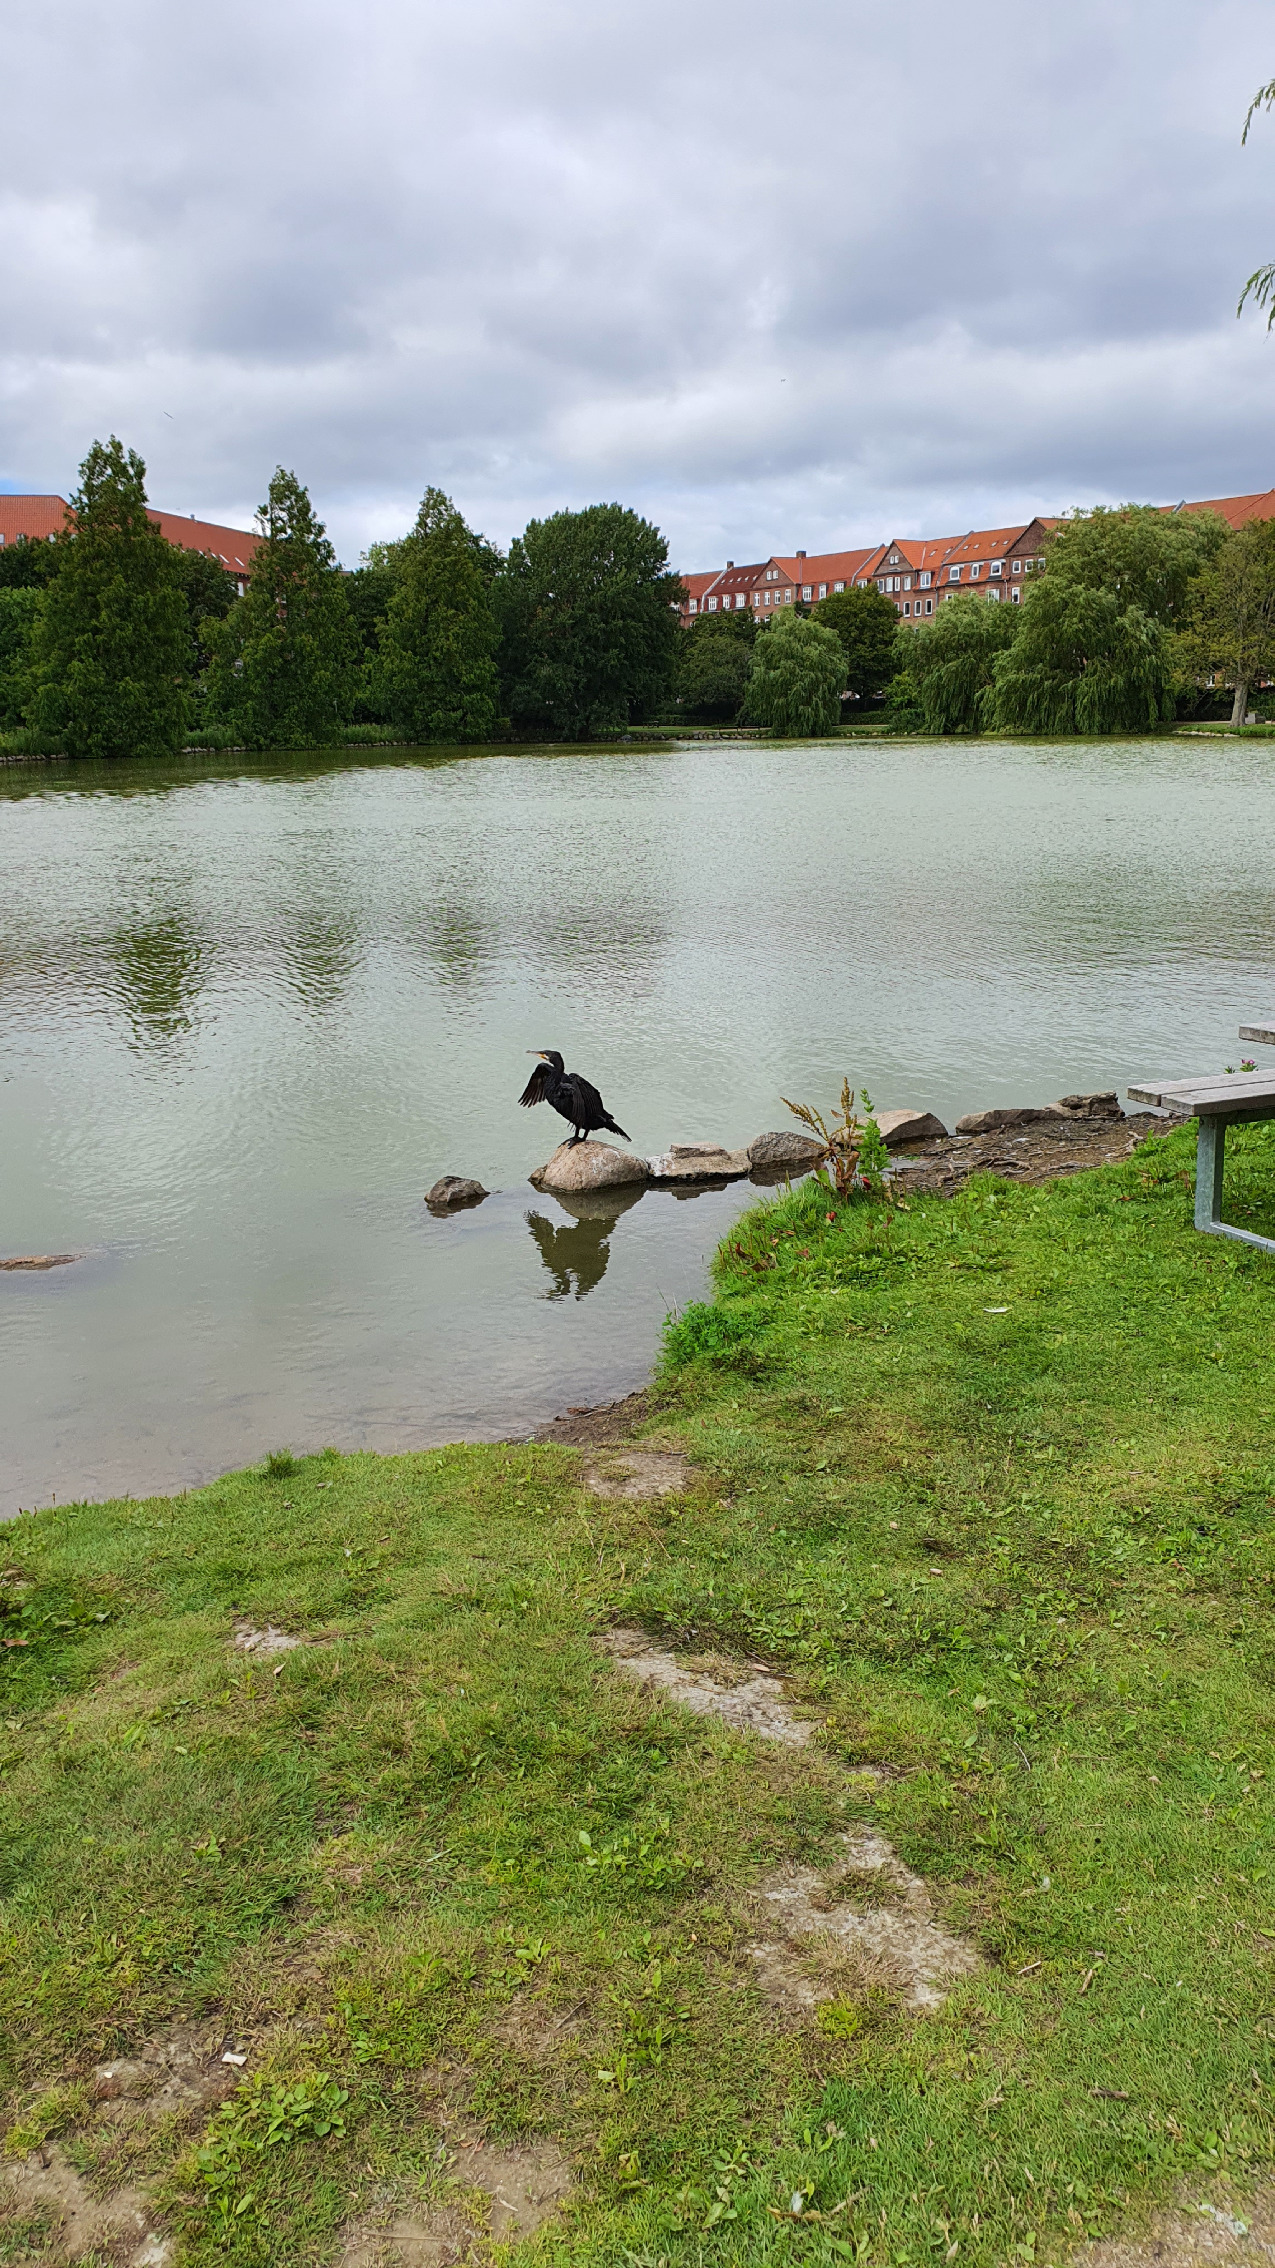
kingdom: Animalia
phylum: Chordata
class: Aves
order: Suliformes
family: Phalacrocoracidae
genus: Phalacrocorax
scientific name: Phalacrocorax carbo
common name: Skarv
